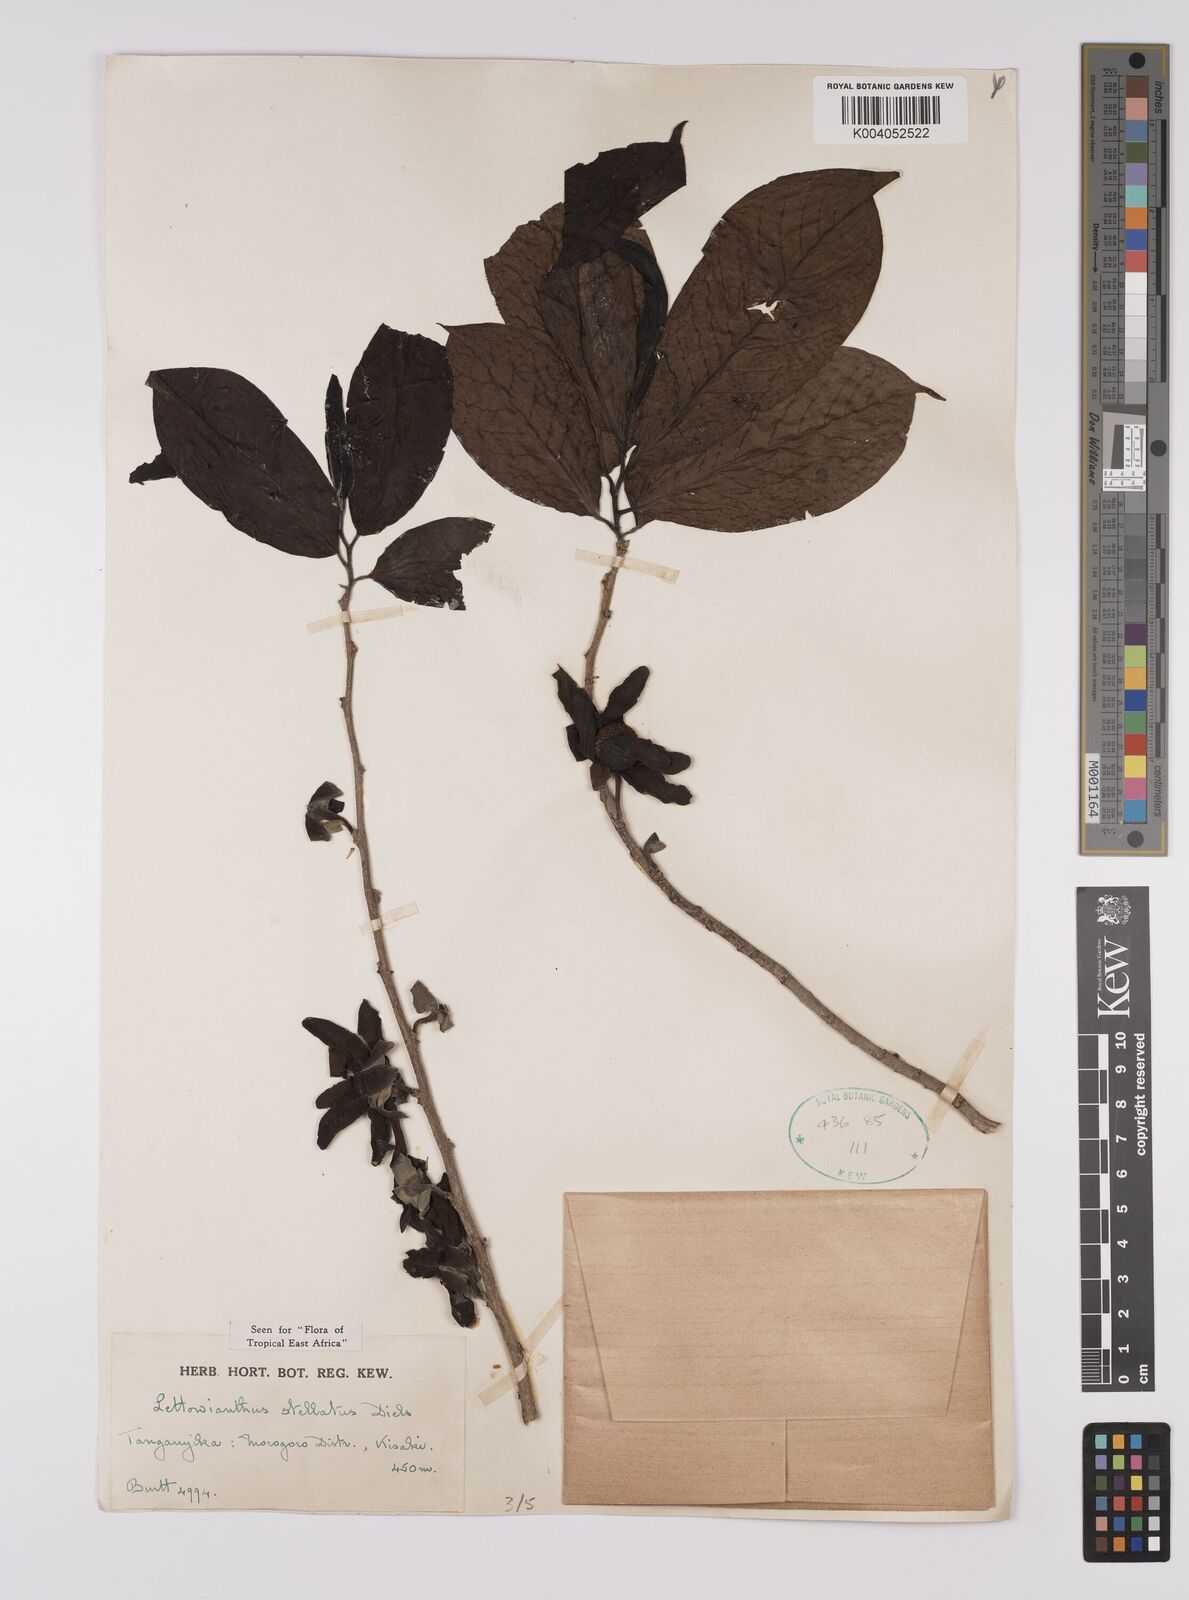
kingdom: Plantae
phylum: Tracheophyta
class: Magnoliopsida
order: Magnoliales
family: Annonaceae
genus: Lettowianthus
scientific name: Lettowianthus stellatus
